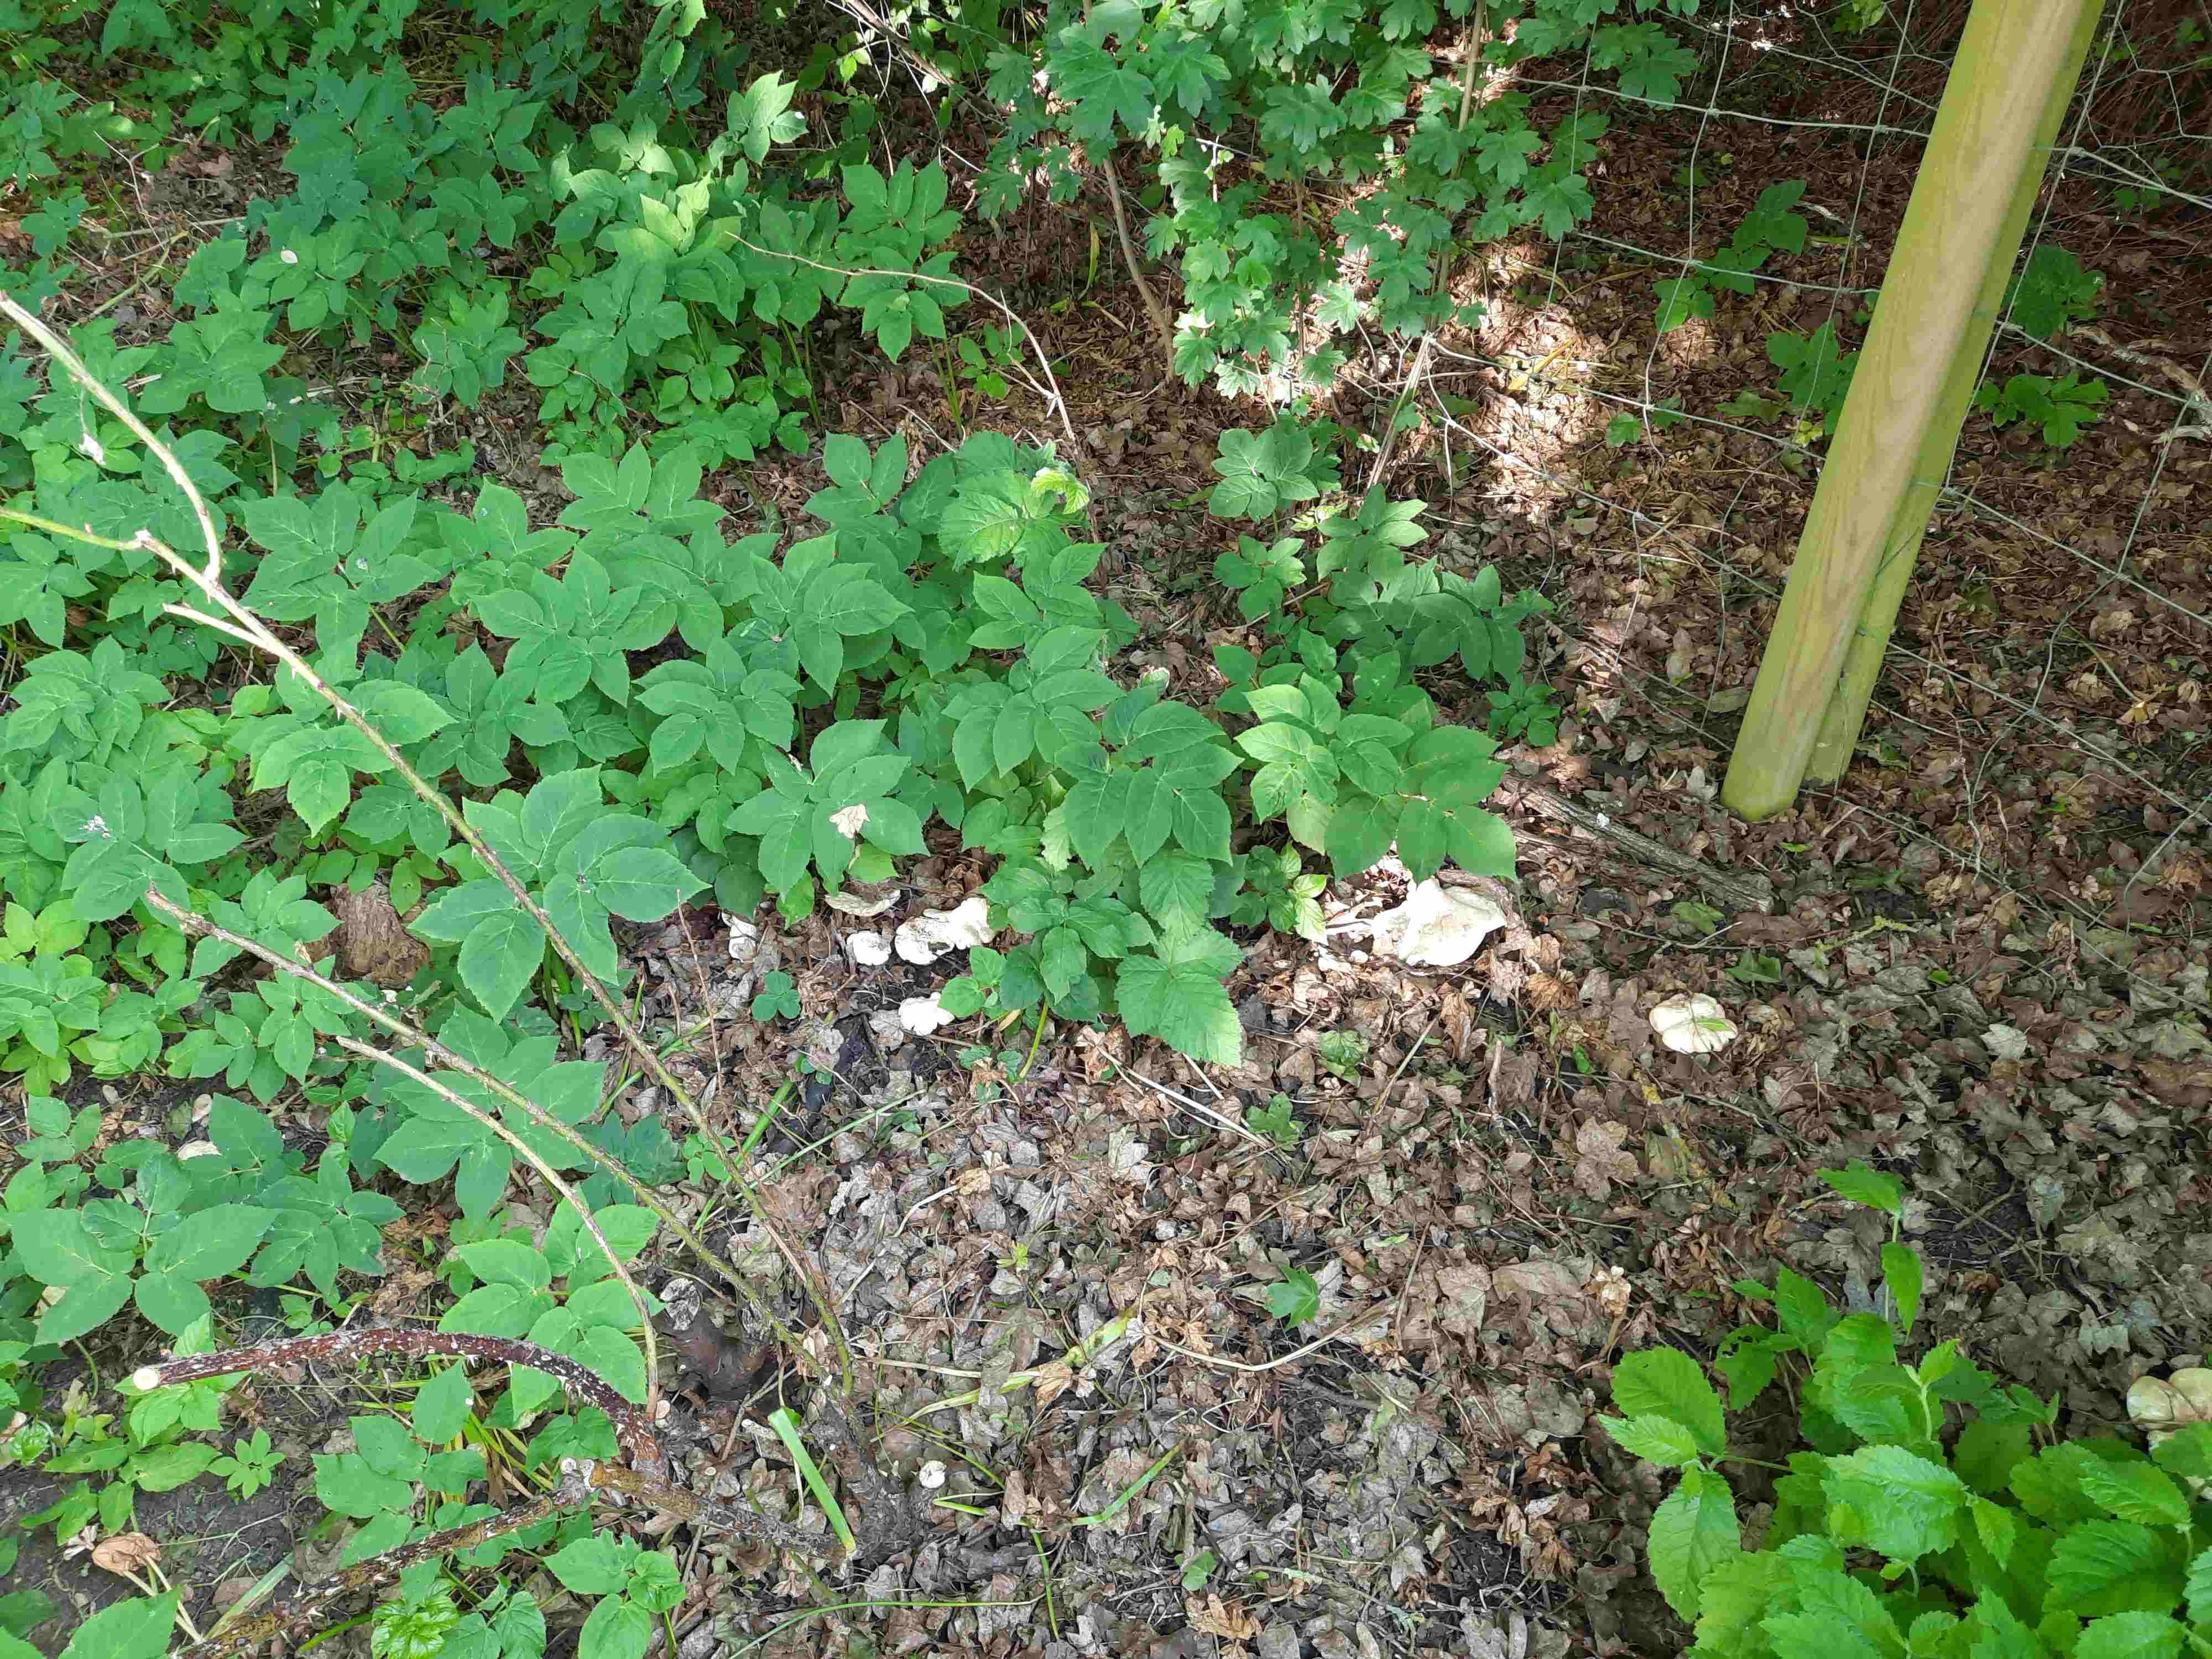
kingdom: Fungi
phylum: Basidiomycota
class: Agaricomycetes
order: Agaricales
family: Lyophyllaceae
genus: Calocybe
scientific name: Calocybe gambosa
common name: vårmusseron
